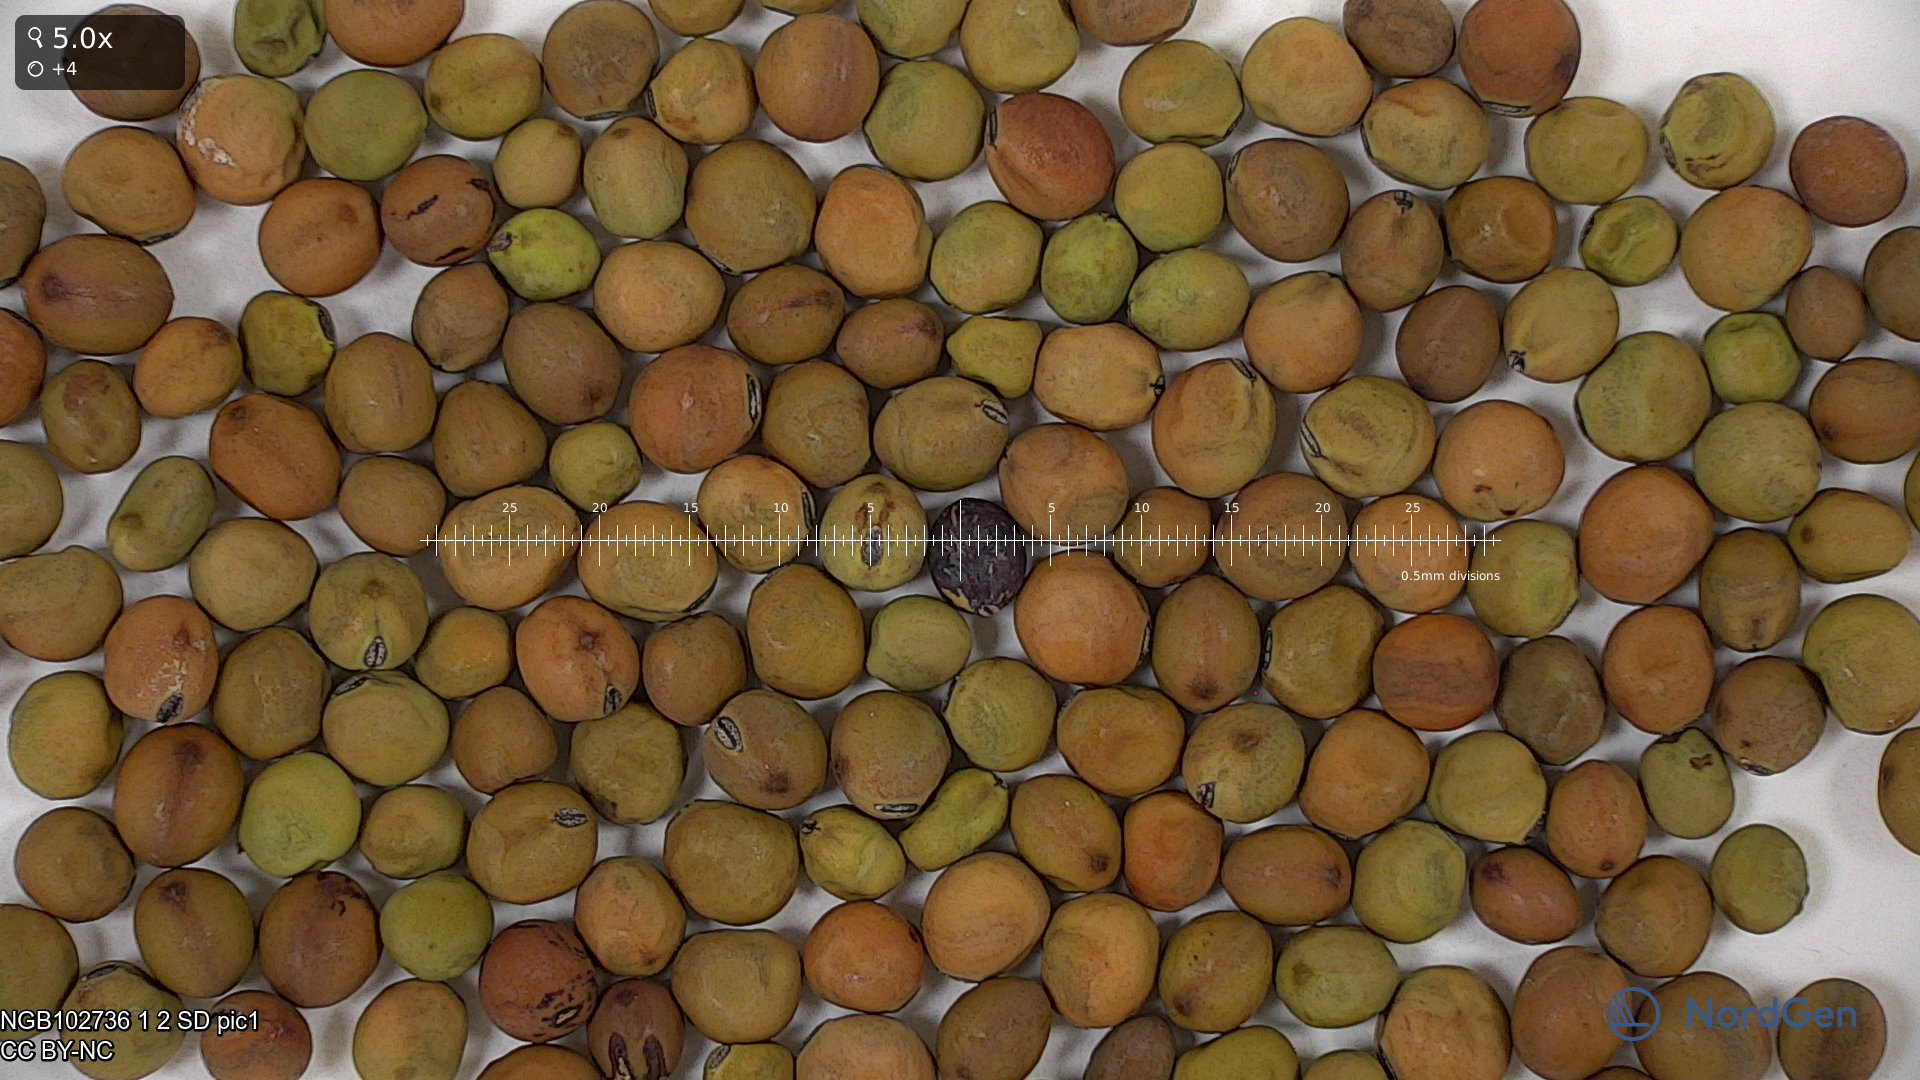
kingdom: Plantae
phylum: Tracheophyta
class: Magnoliopsida
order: Fabales
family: Fabaceae
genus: Lathyrus
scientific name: Lathyrus oleraceus
